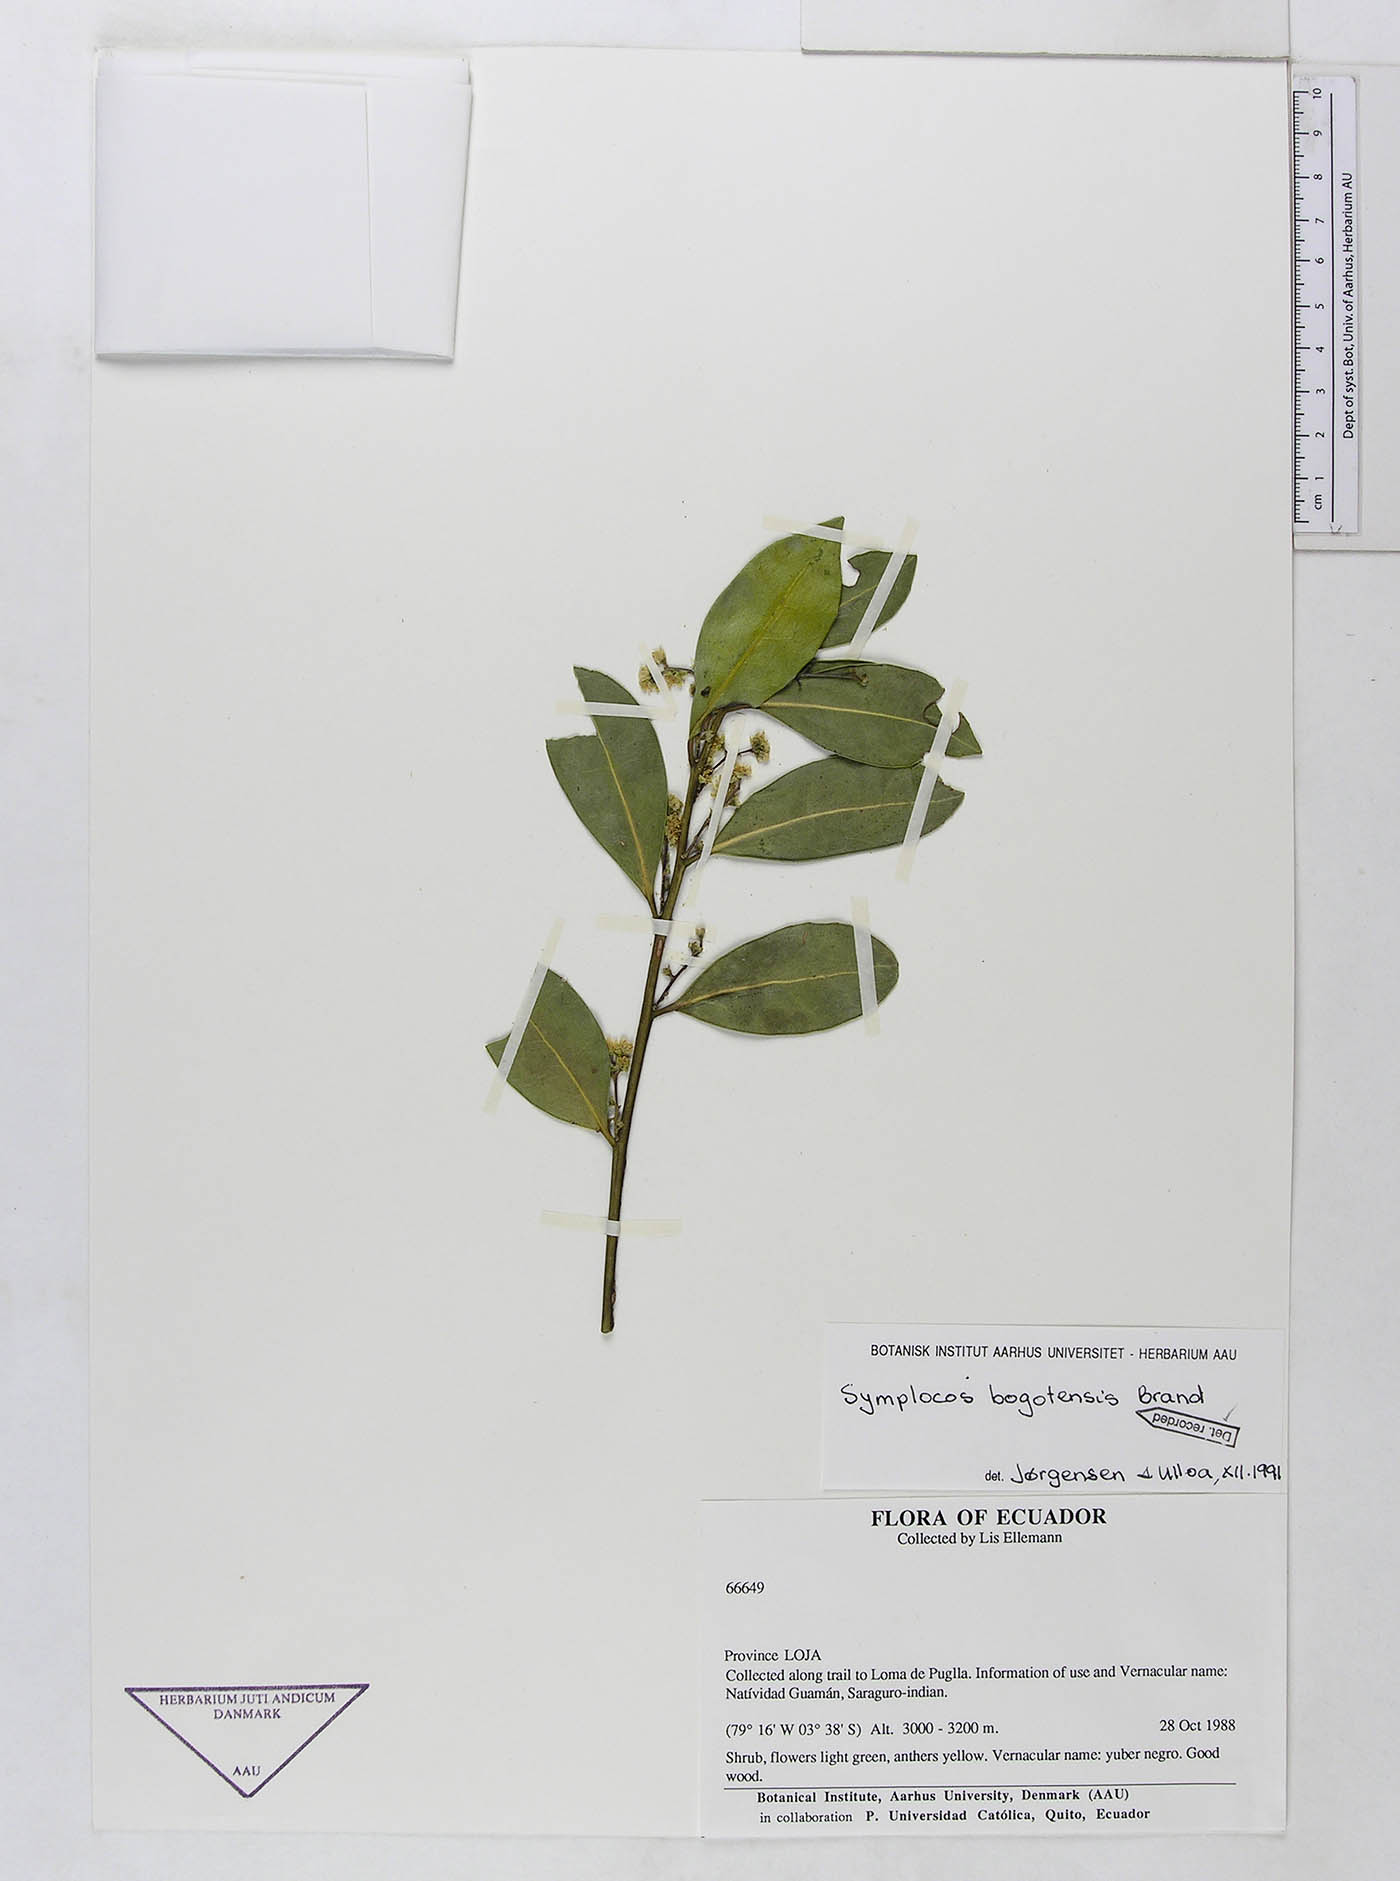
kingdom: Plantae
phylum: Tracheophyta
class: Magnoliopsida
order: Ericales
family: Symplocaceae
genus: Symplocos
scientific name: Symplocos bogotensis
